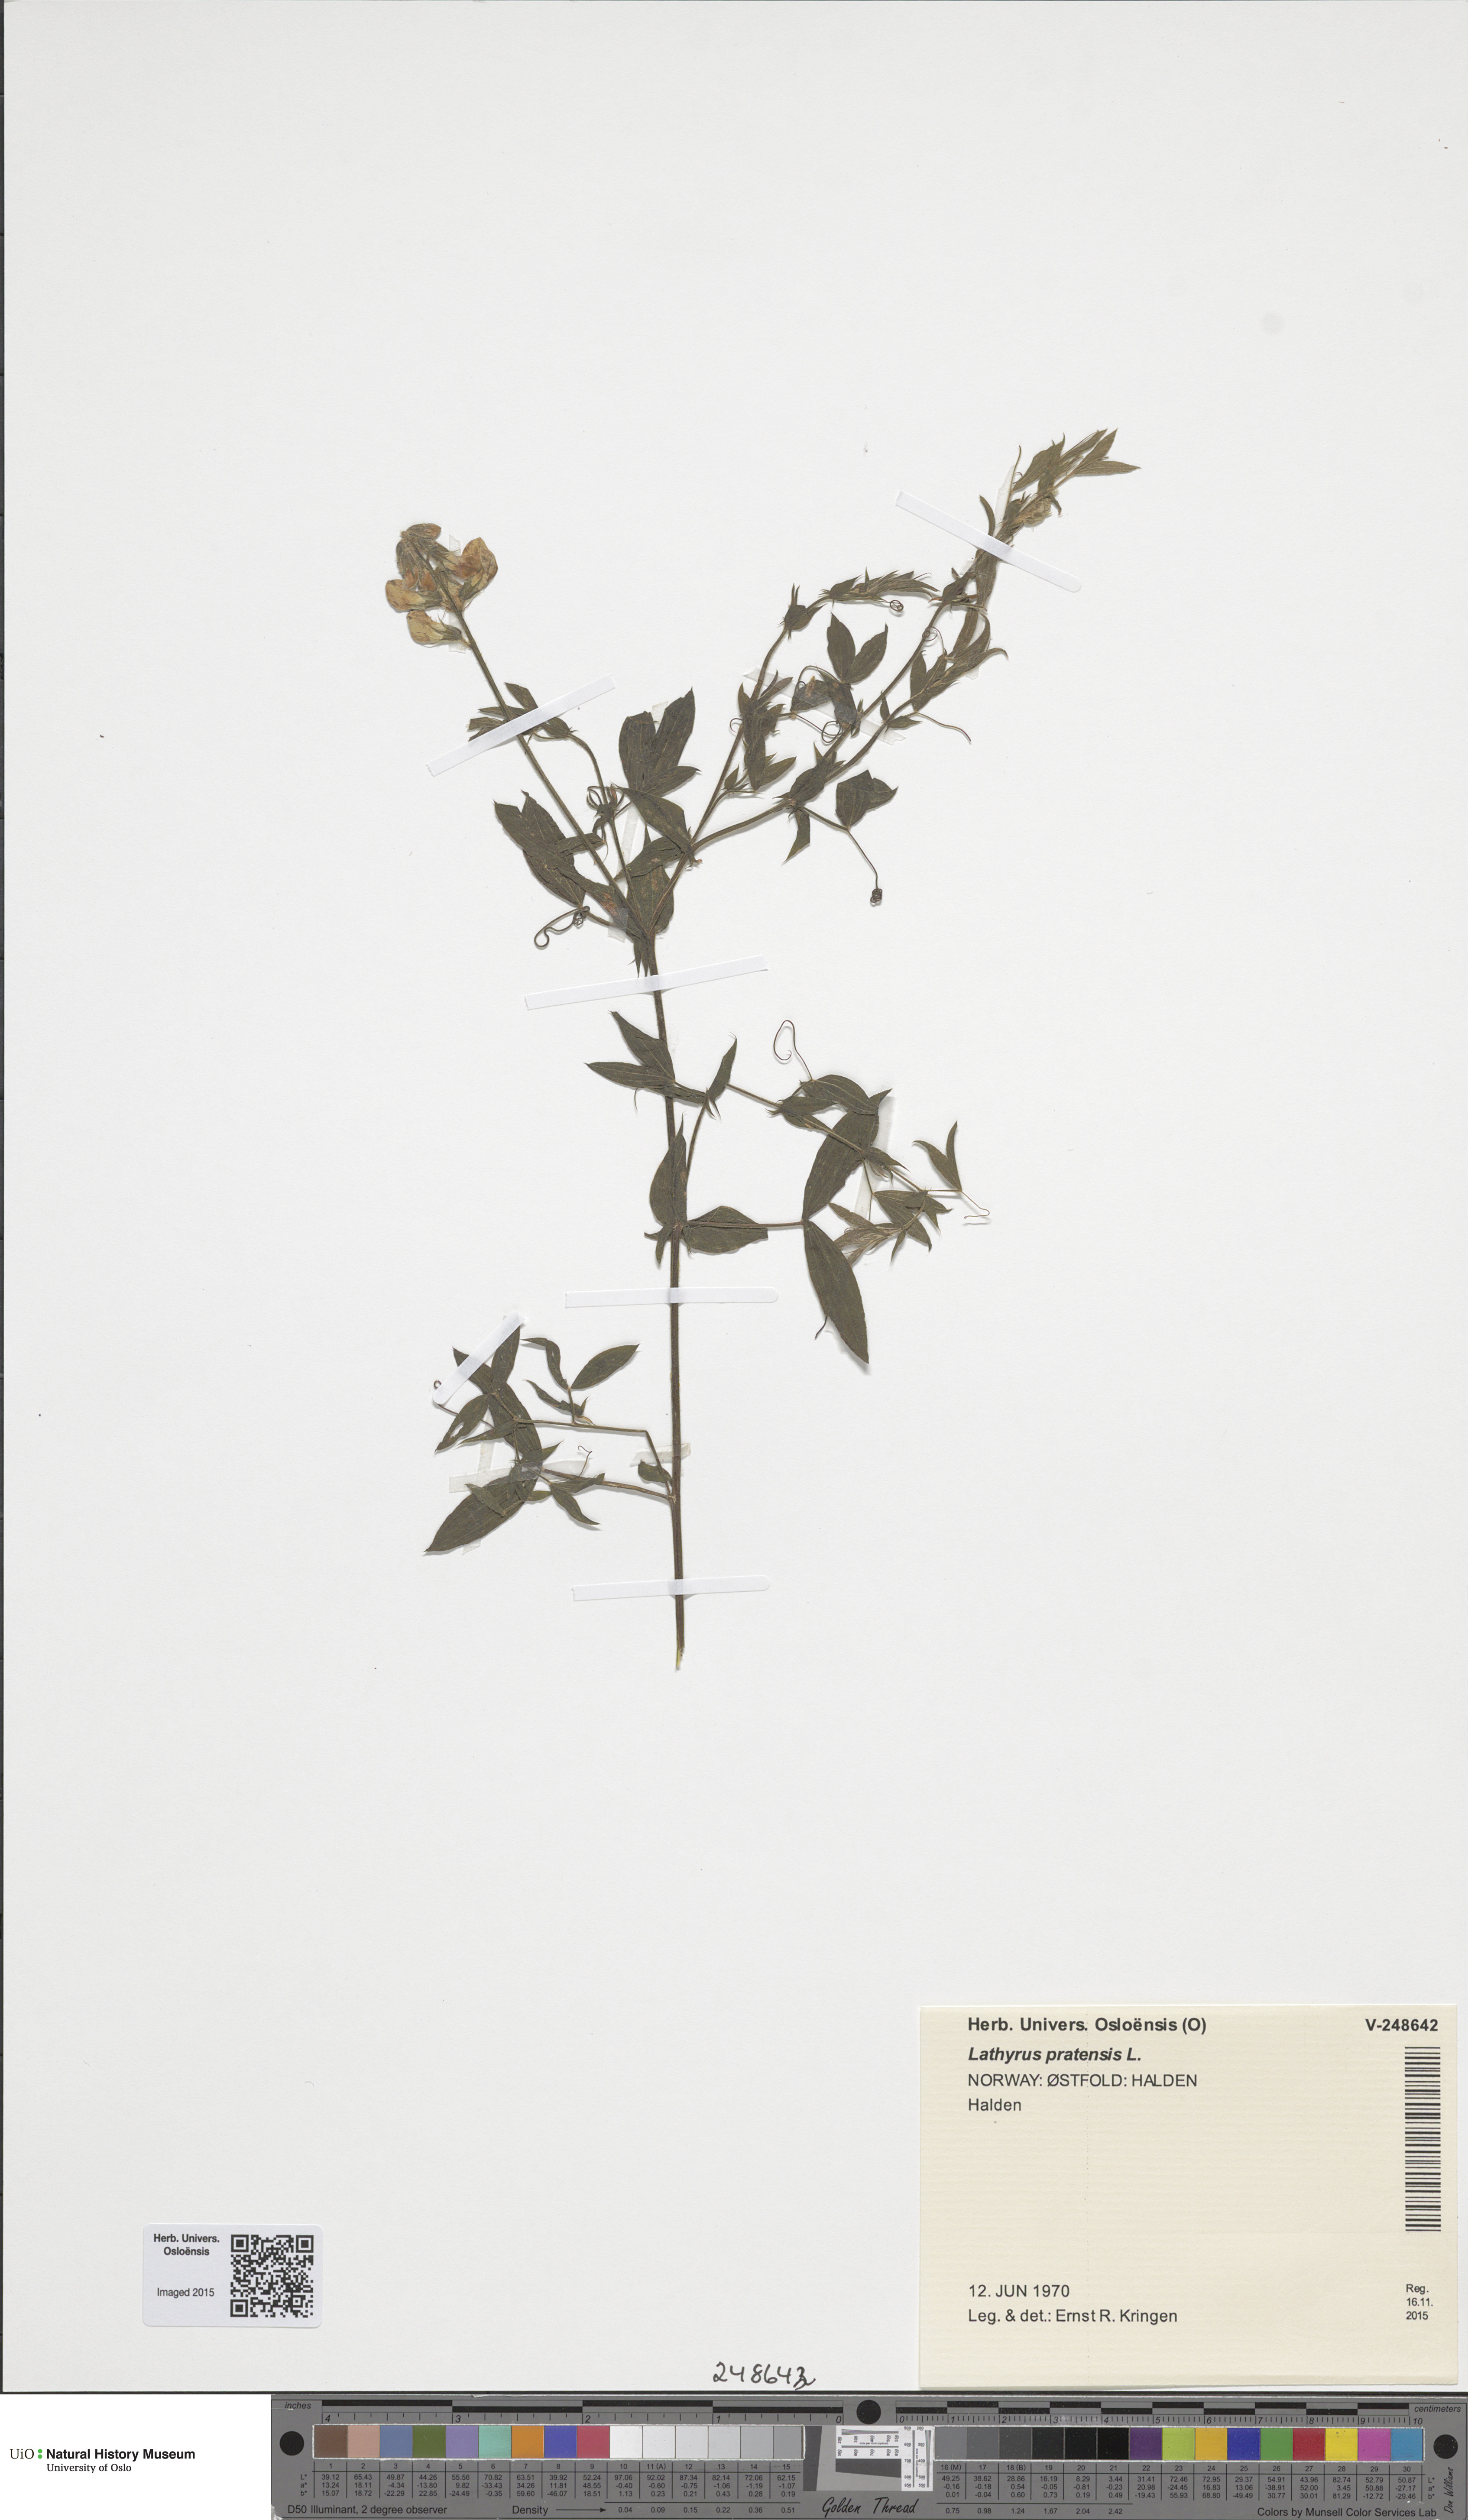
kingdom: Plantae
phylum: Tracheophyta
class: Magnoliopsida
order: Fabales
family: Fabaceae
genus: Lathyrus
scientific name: Lathyrus pratensis
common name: Meadow vetchling
